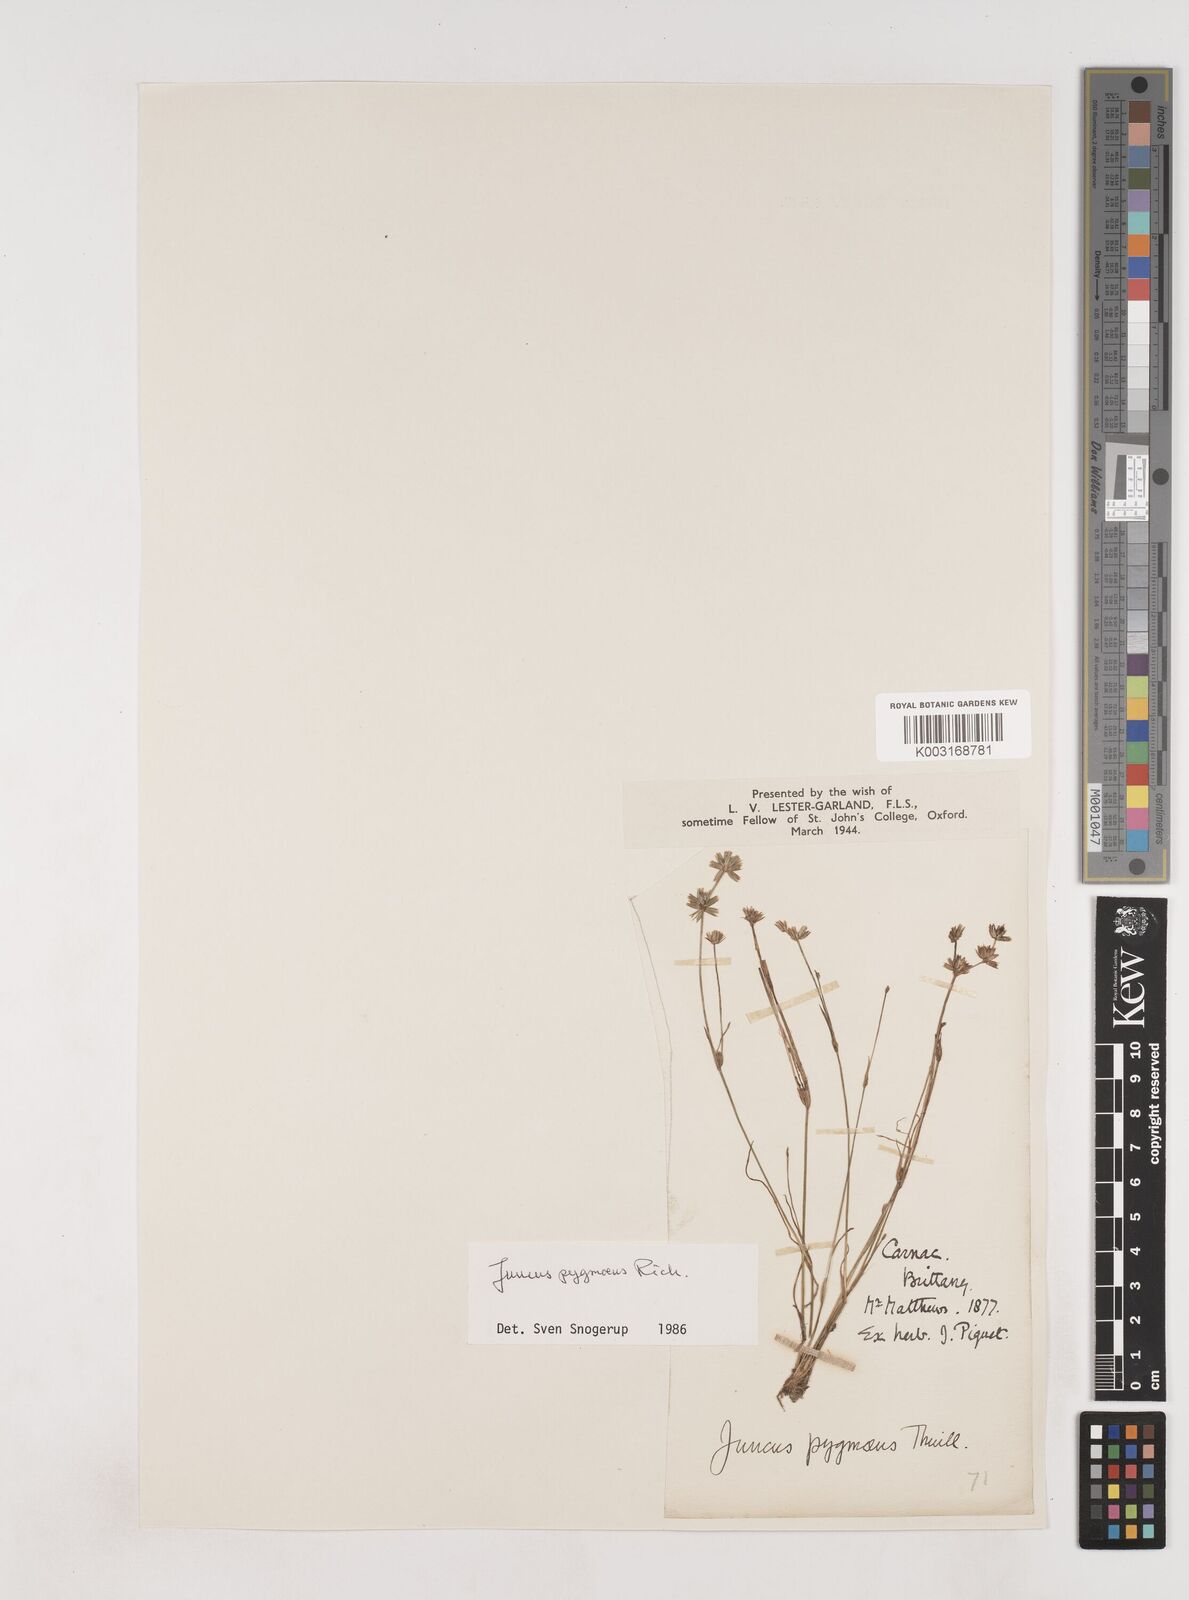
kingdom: Plantae
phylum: Tracheophyta
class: Liliopsida
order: Poales
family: Juncaceae
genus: Juncus
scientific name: Juncus pygmaeus
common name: Pigmy rush
